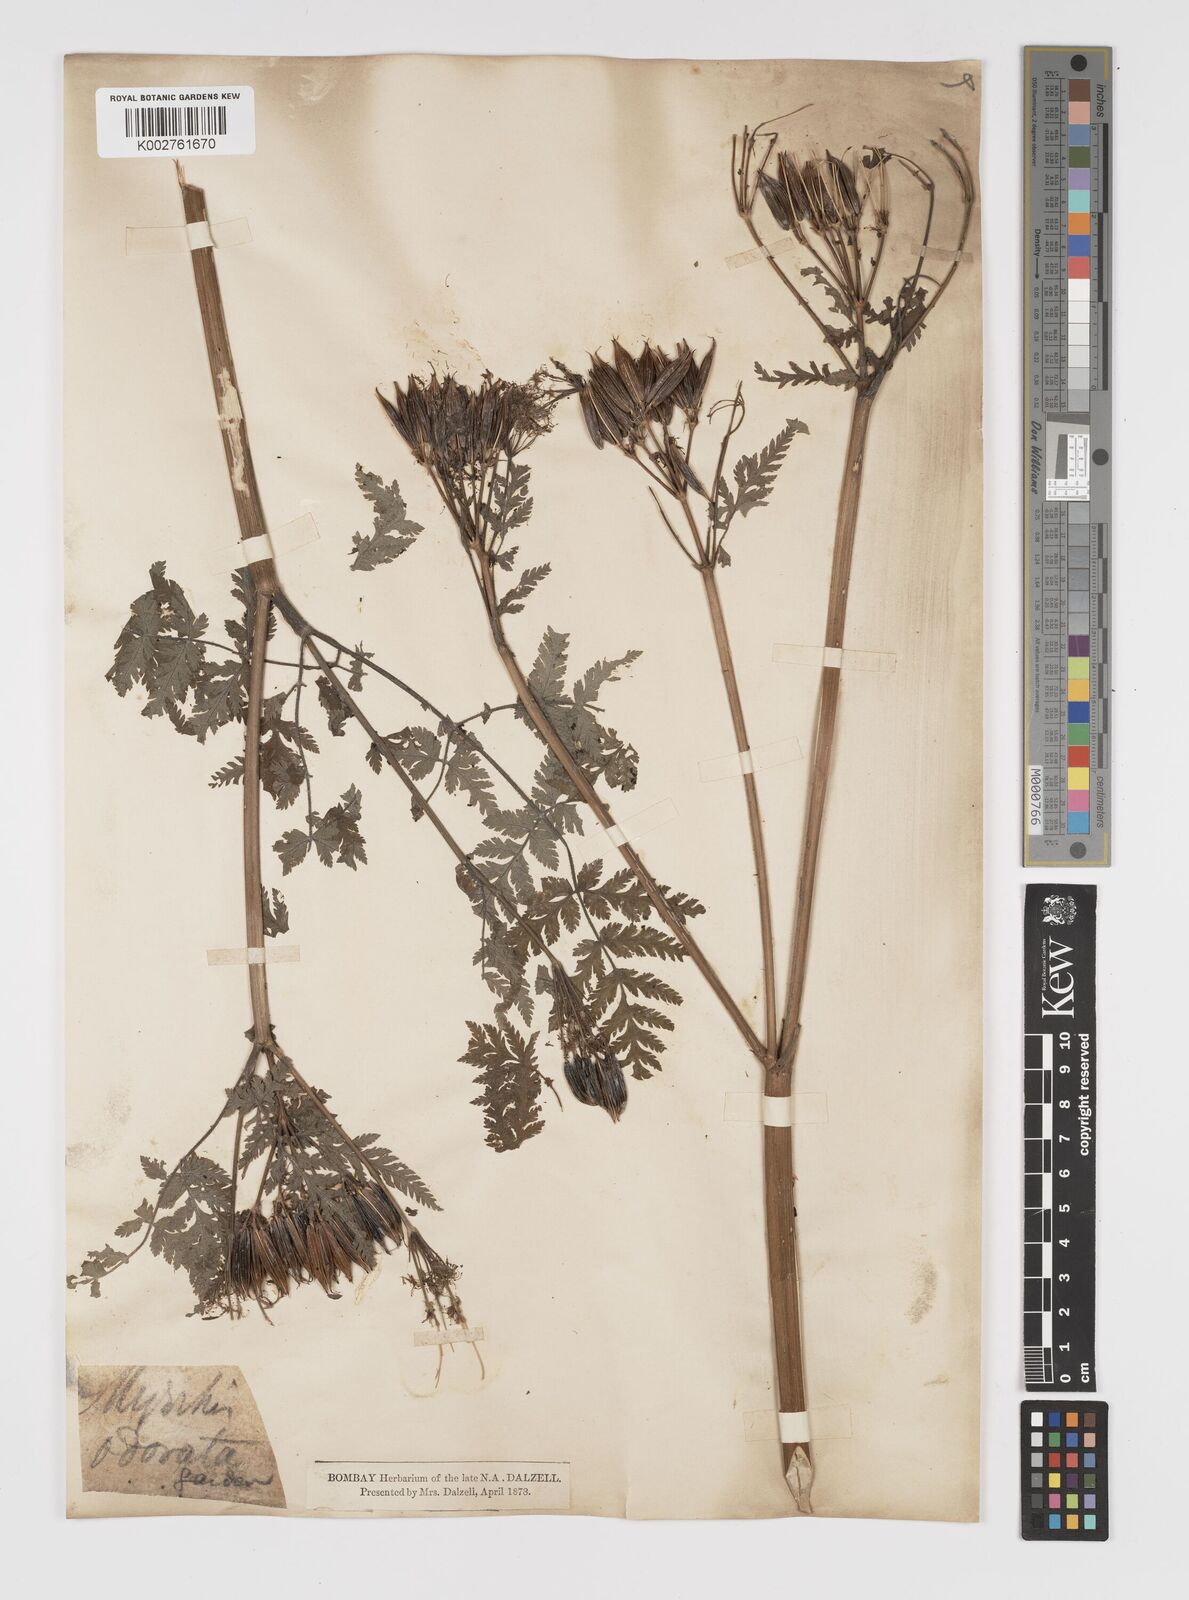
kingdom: Plantae
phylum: Tracheophyta
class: Magnoliopsida
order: Apiales
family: Apiaceae
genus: Myrrhis
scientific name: Myrrhis odorata
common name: Sweet cicely
